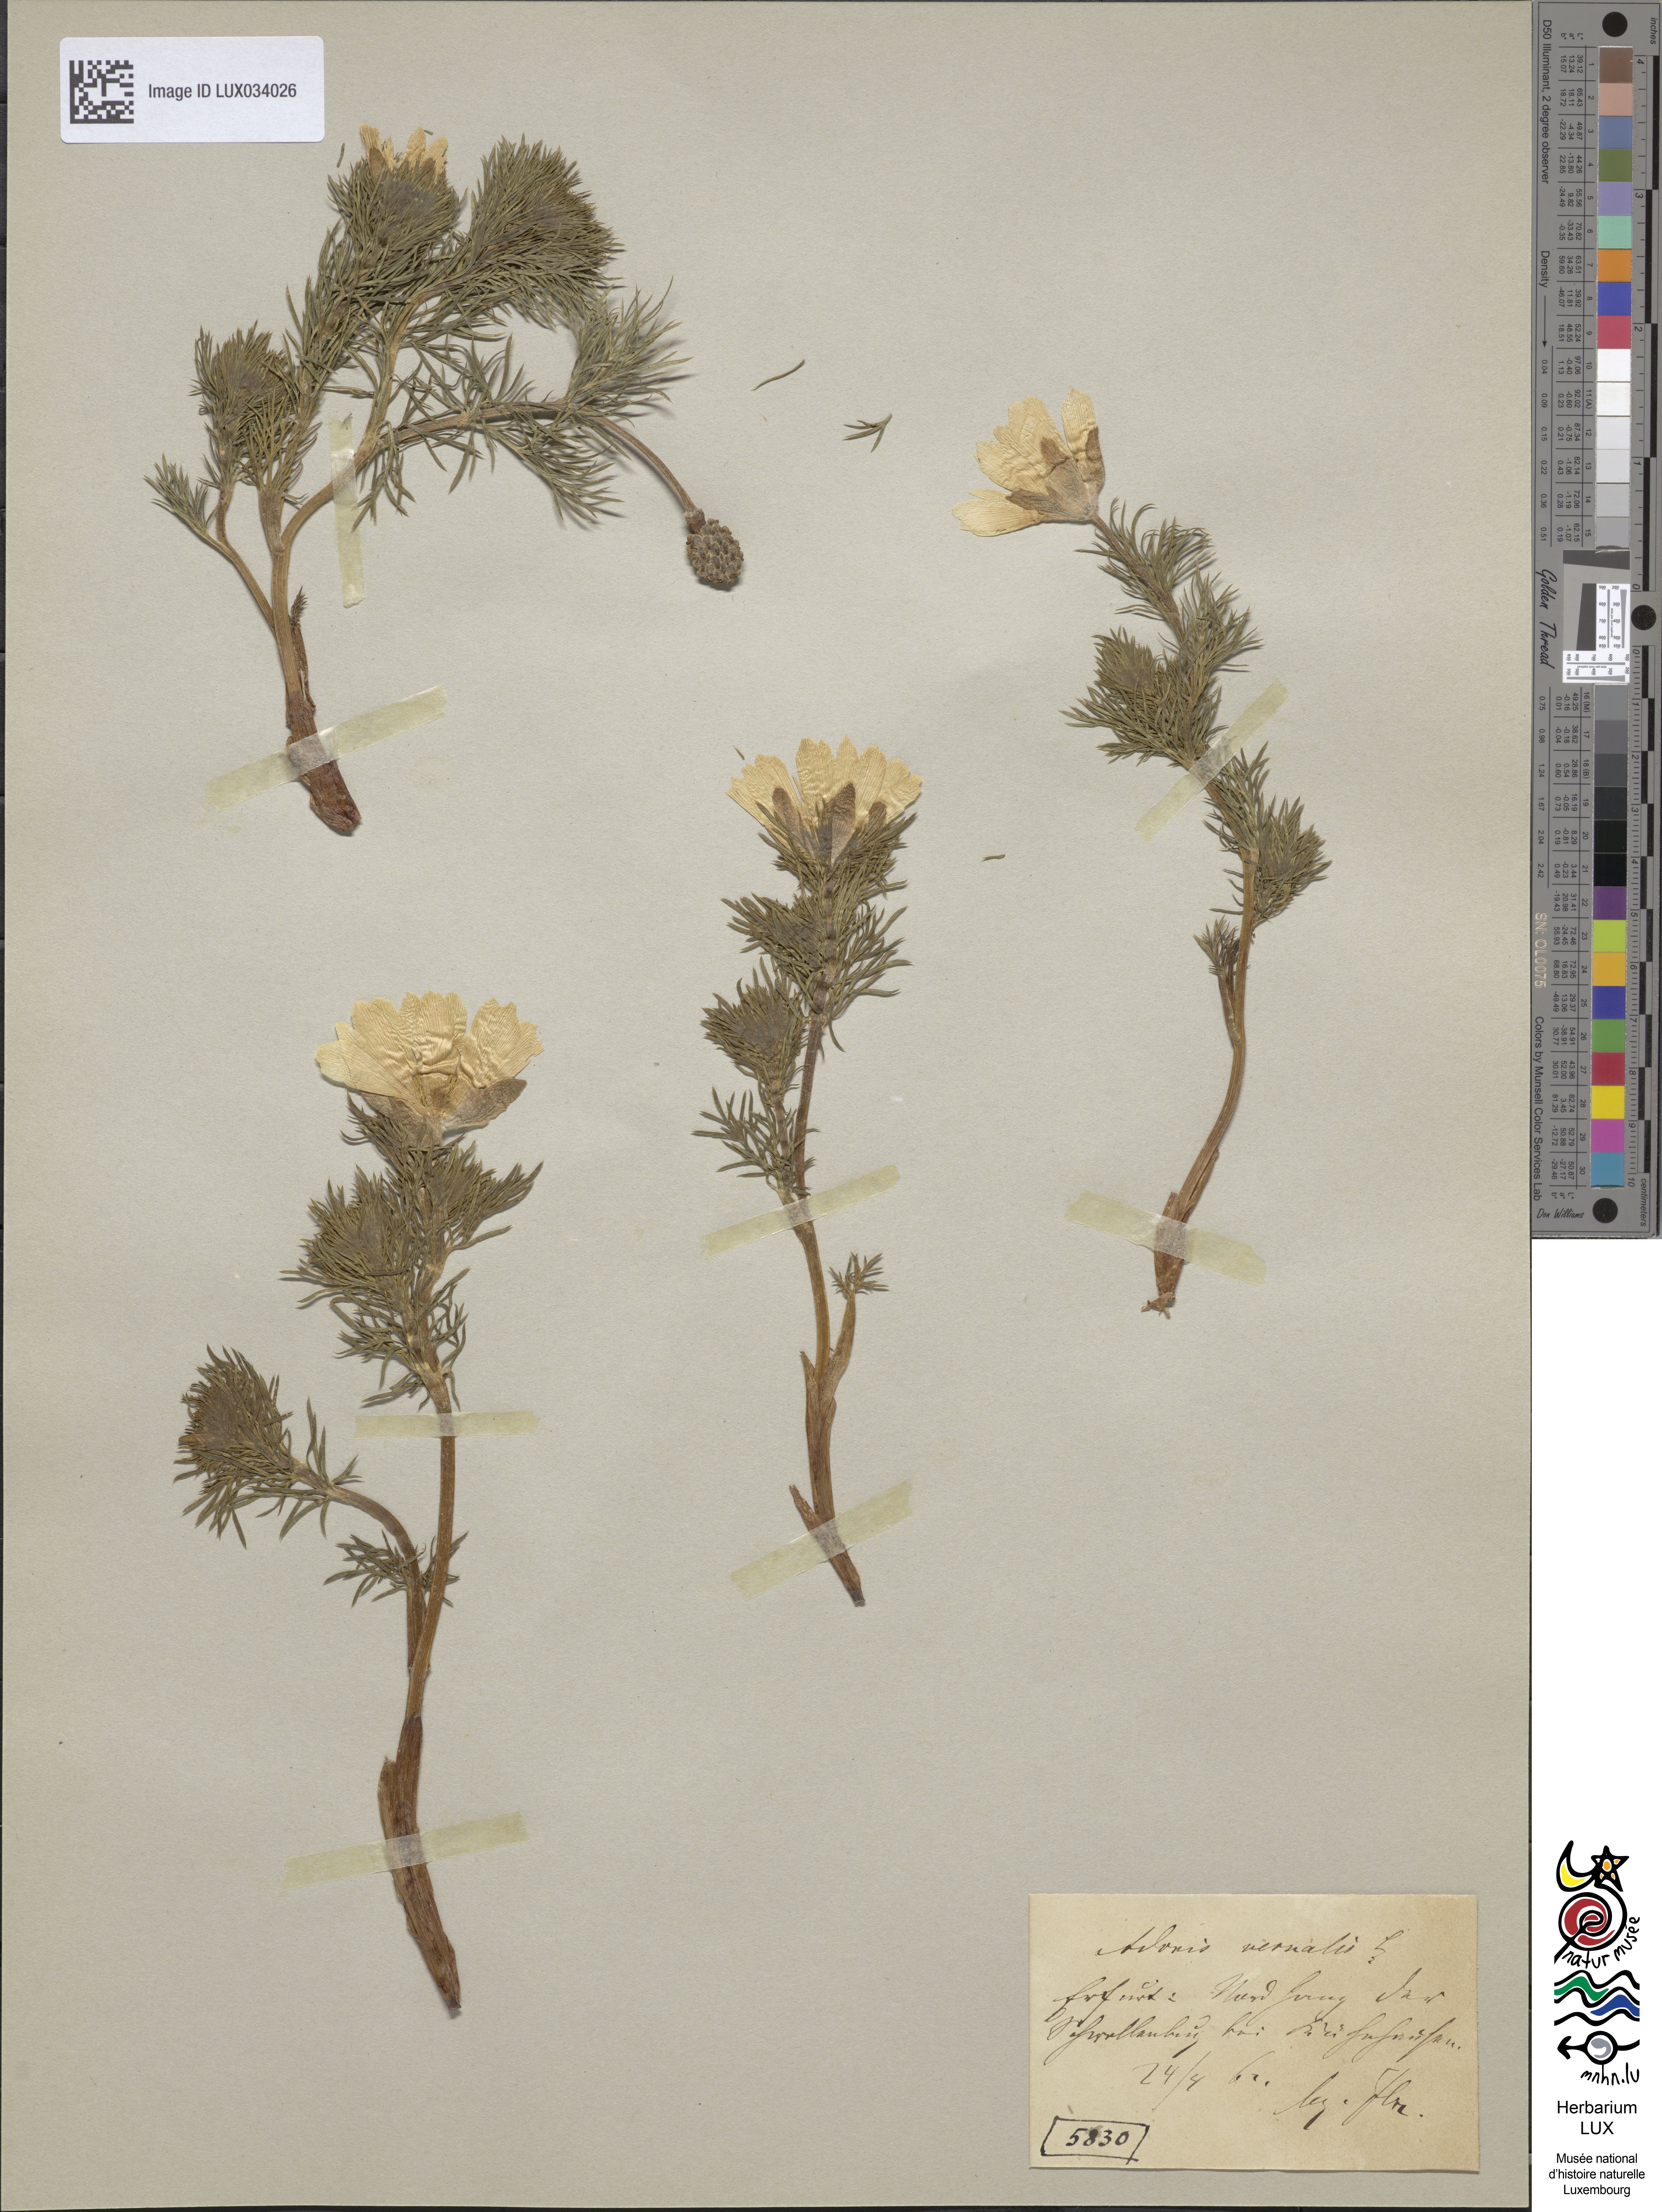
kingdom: Plantae
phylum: Tracheophyta
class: Magnoliopsida
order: Ranunculales
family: Ranunculaceae
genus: Adonis
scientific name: Adonis vernalis
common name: Yellow pheasants-eye
